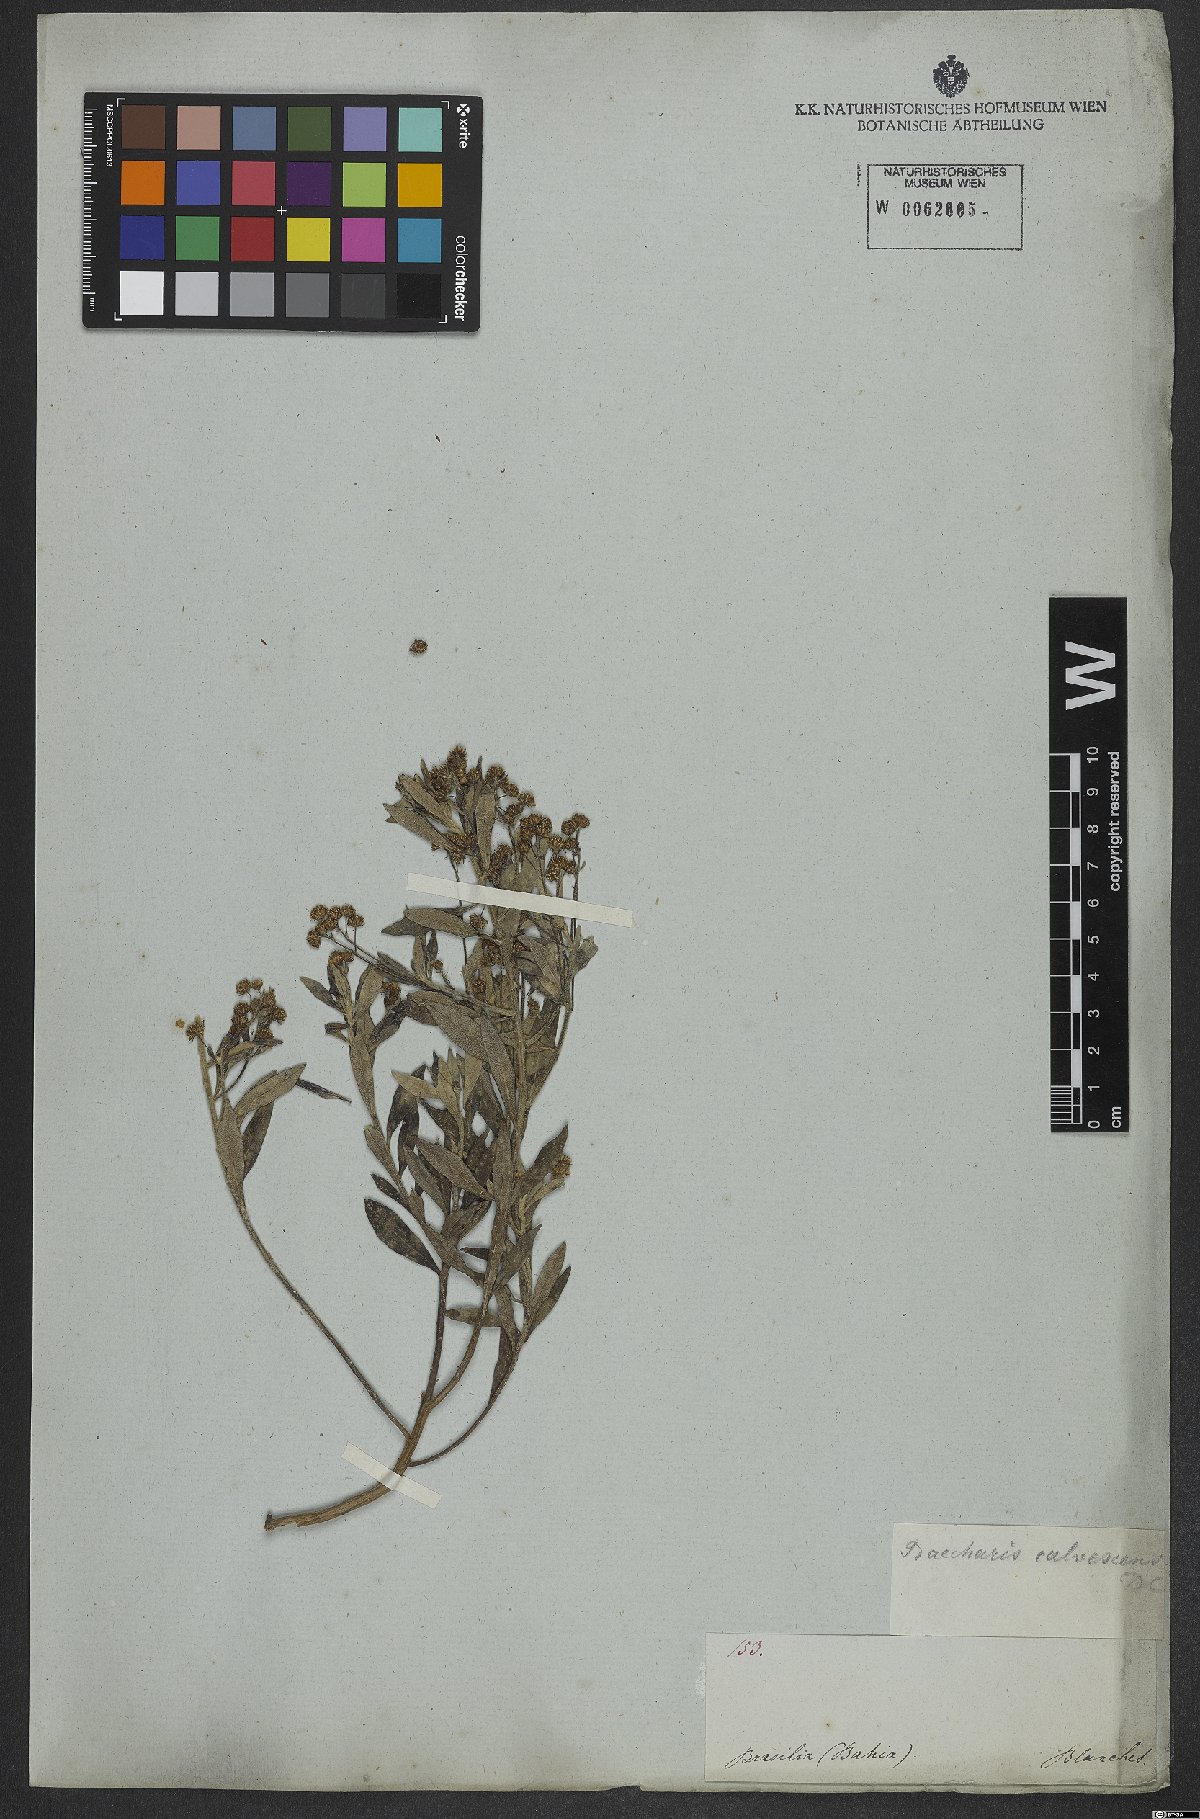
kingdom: Plantae
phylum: Tracheophyta
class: Magnoliopsida
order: Asterales
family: Asteraceae
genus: Baccharis
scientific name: Baccharis calvescens
